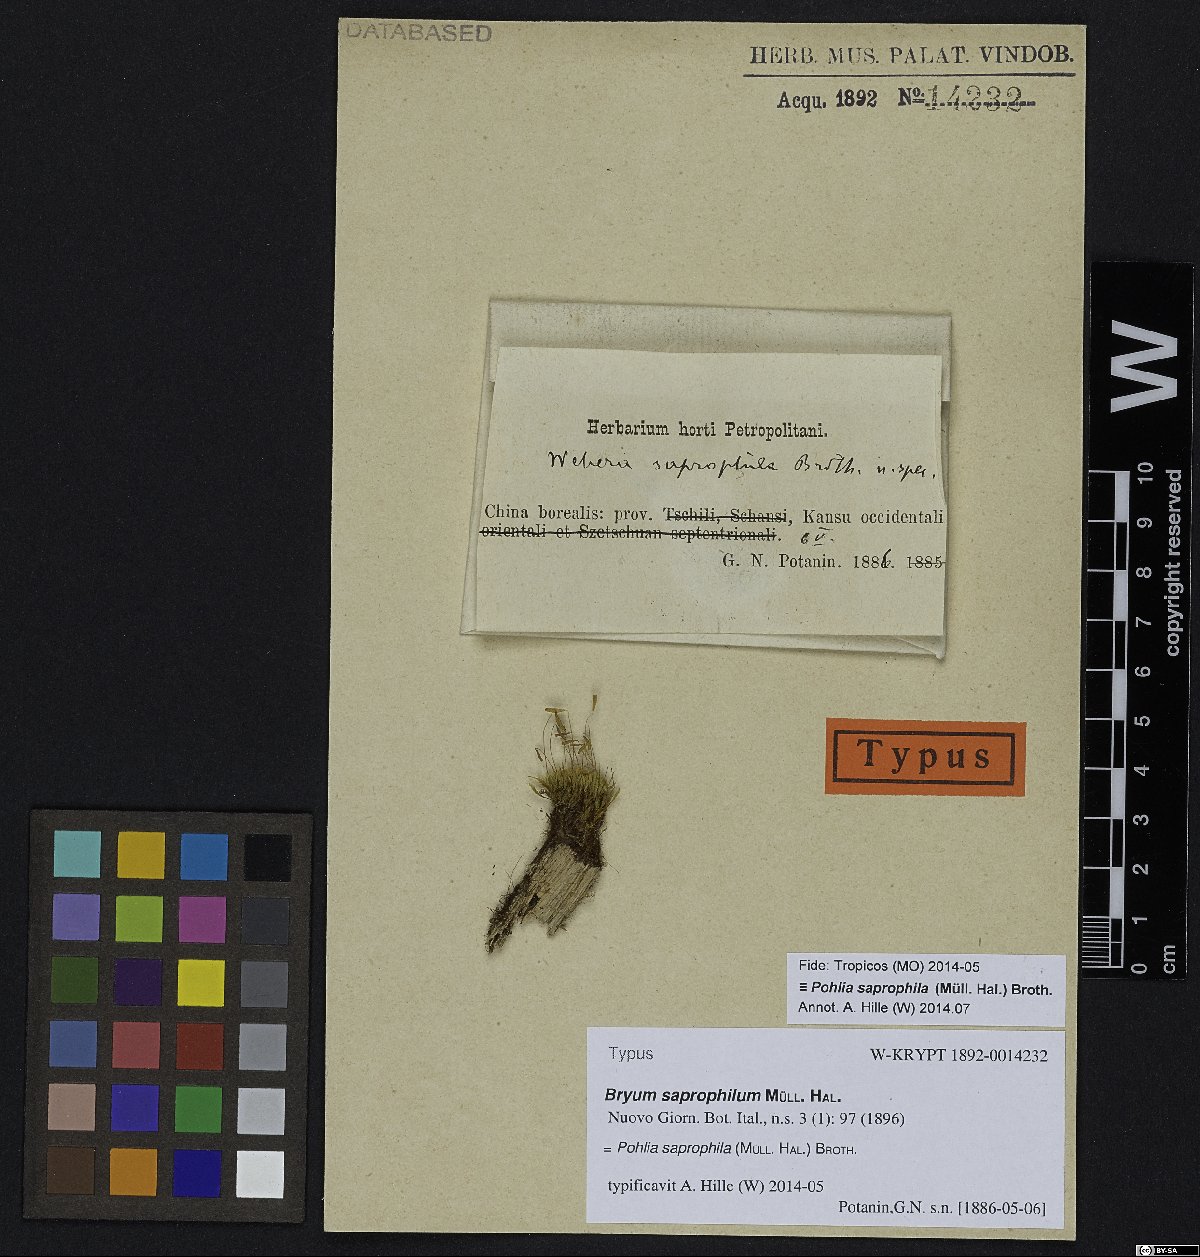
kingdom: Plantae
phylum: Bryophyta
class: Bryopsida
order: Bryales
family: Mniaceae
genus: Pohlia
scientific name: Pohlia saprophila
